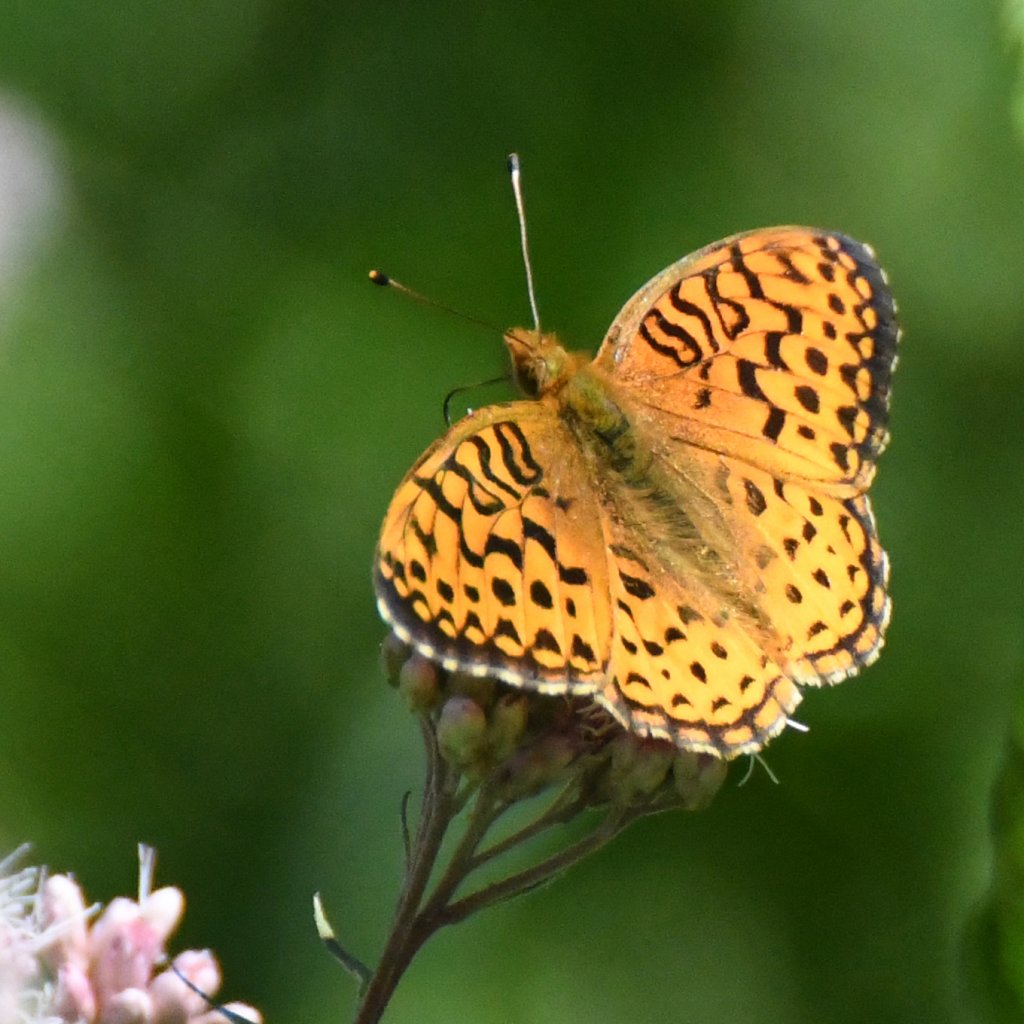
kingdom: Animalia
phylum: Arthropoda
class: Insecta
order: Lepidoptera
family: Nymphalidae
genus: Speyeria
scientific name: Speyeria aphrodite
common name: Aphrodite Fritillary
